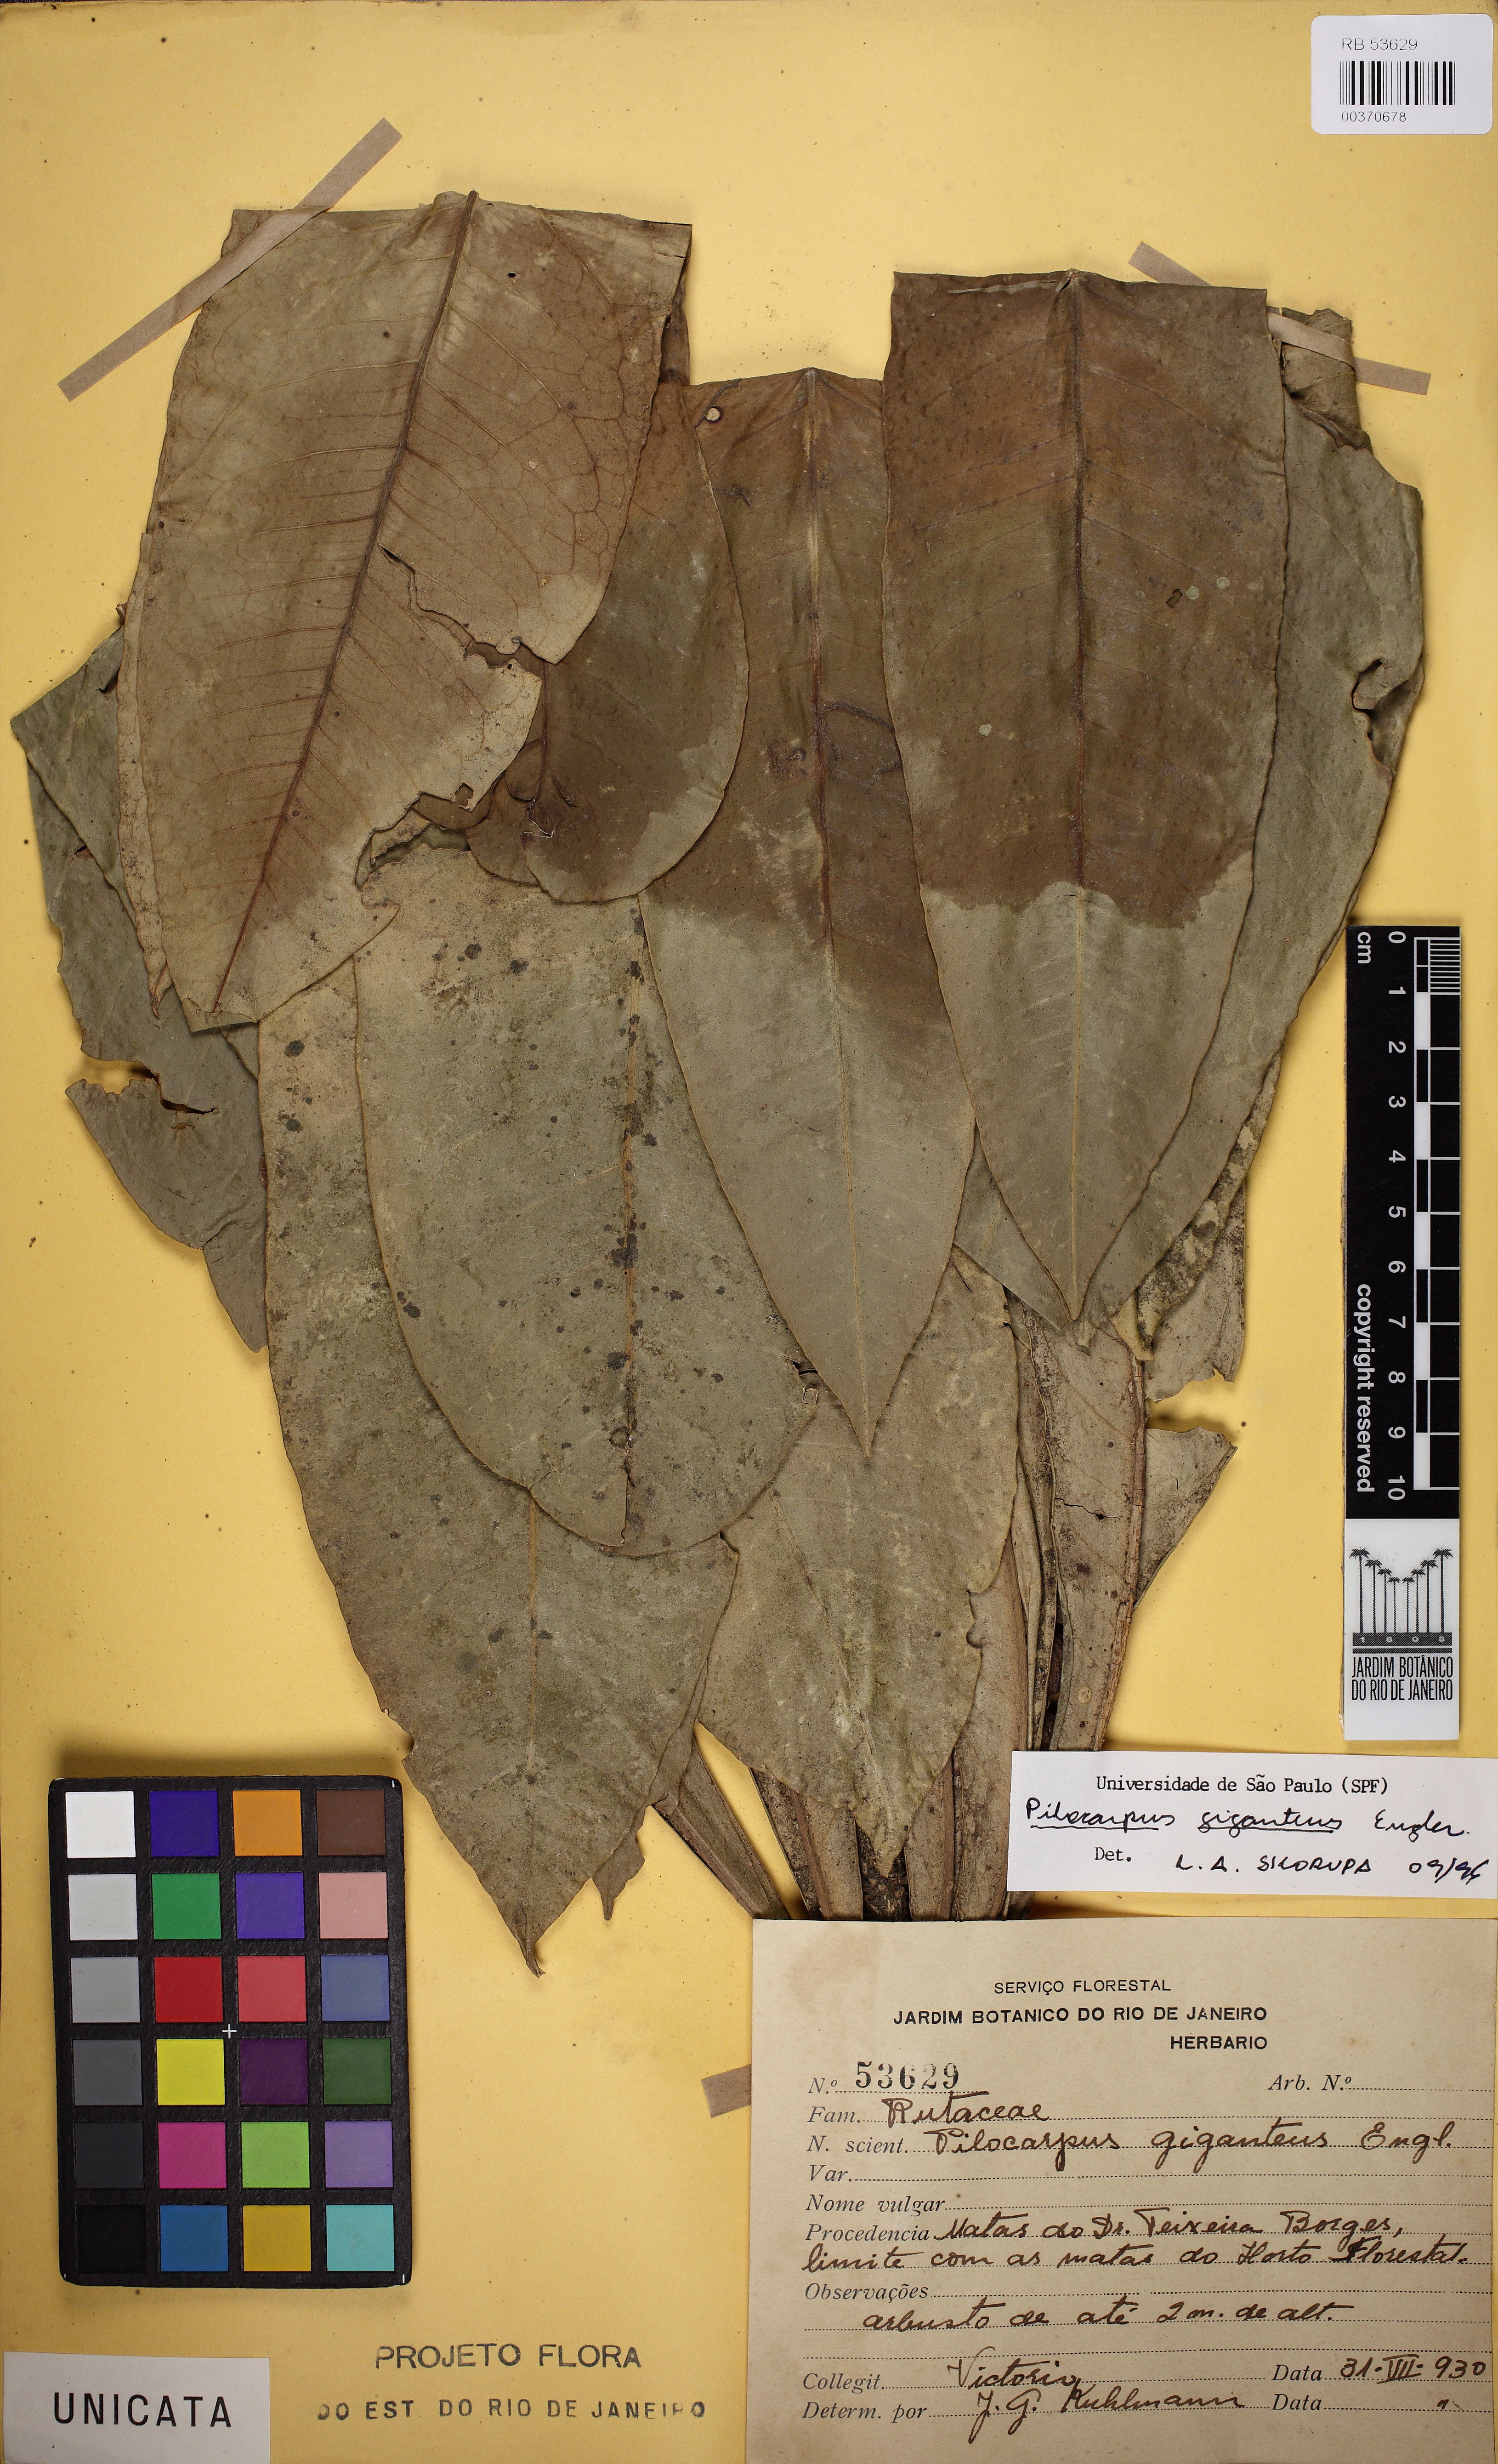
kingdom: Plantae
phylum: Tracheophyta
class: Magnoliopsida
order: Sapindales
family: Rutaceae
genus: Pilocarpus
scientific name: Pilocarpus giganteus
